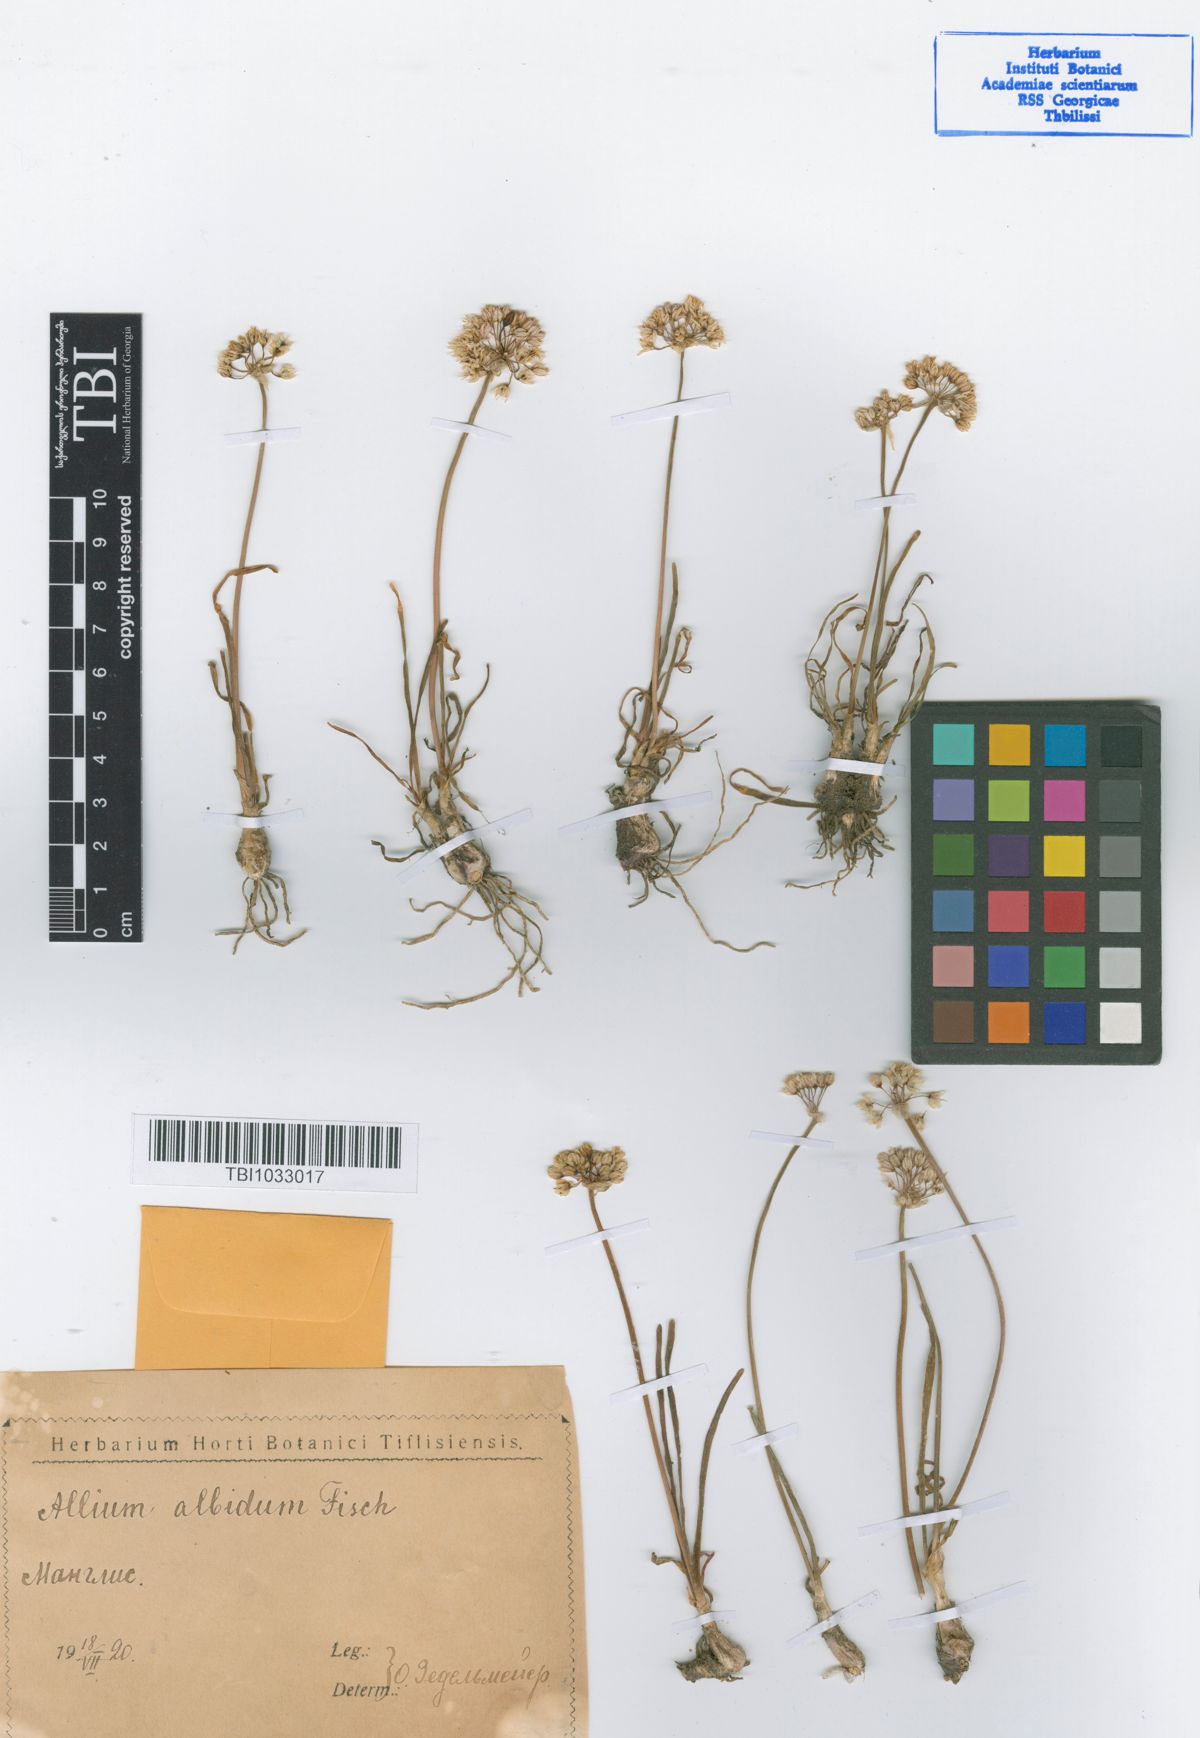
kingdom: Plantae
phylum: Tracheophyta
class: Liliopsida
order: Asparagales
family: Amaryllidaceae
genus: Allium
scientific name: Allium denudatum
